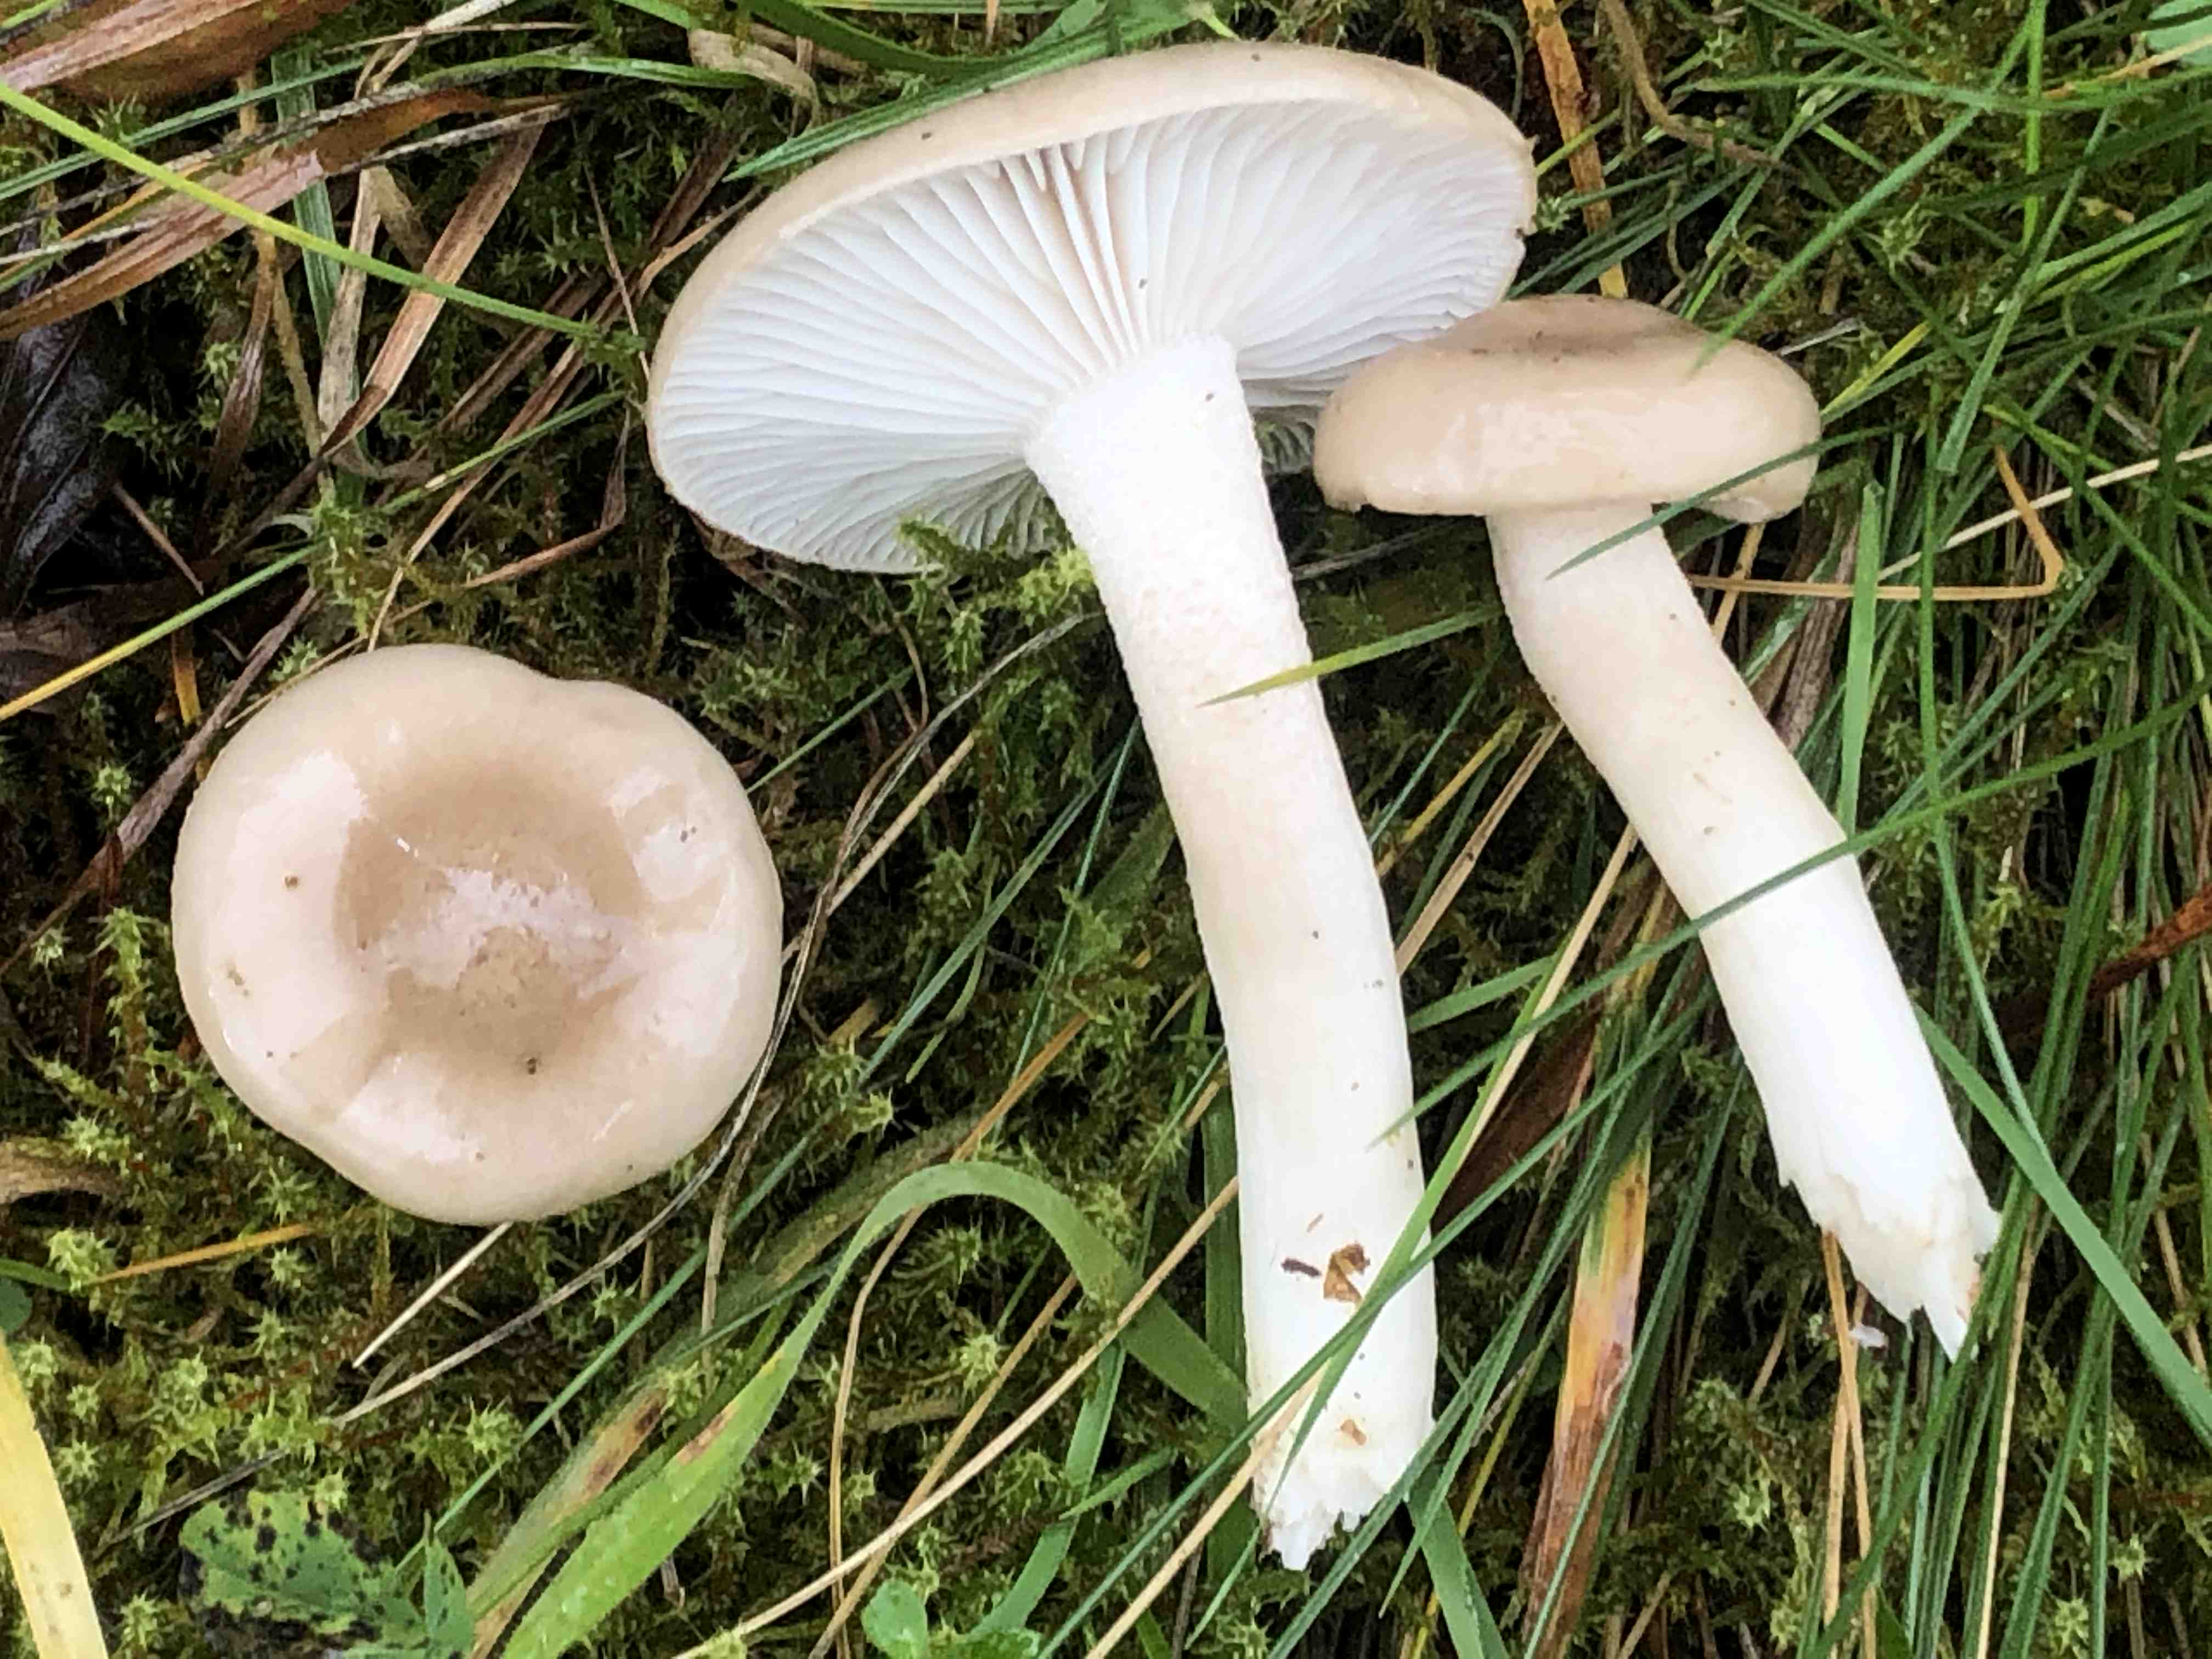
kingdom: Fungi
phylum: Basidiomycota
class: Agaricomycetes
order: Agaricales
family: Hygrophoraceae
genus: Hygrophorus
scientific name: Hygrophorus agathosmus
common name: vellugtende sneglehat
